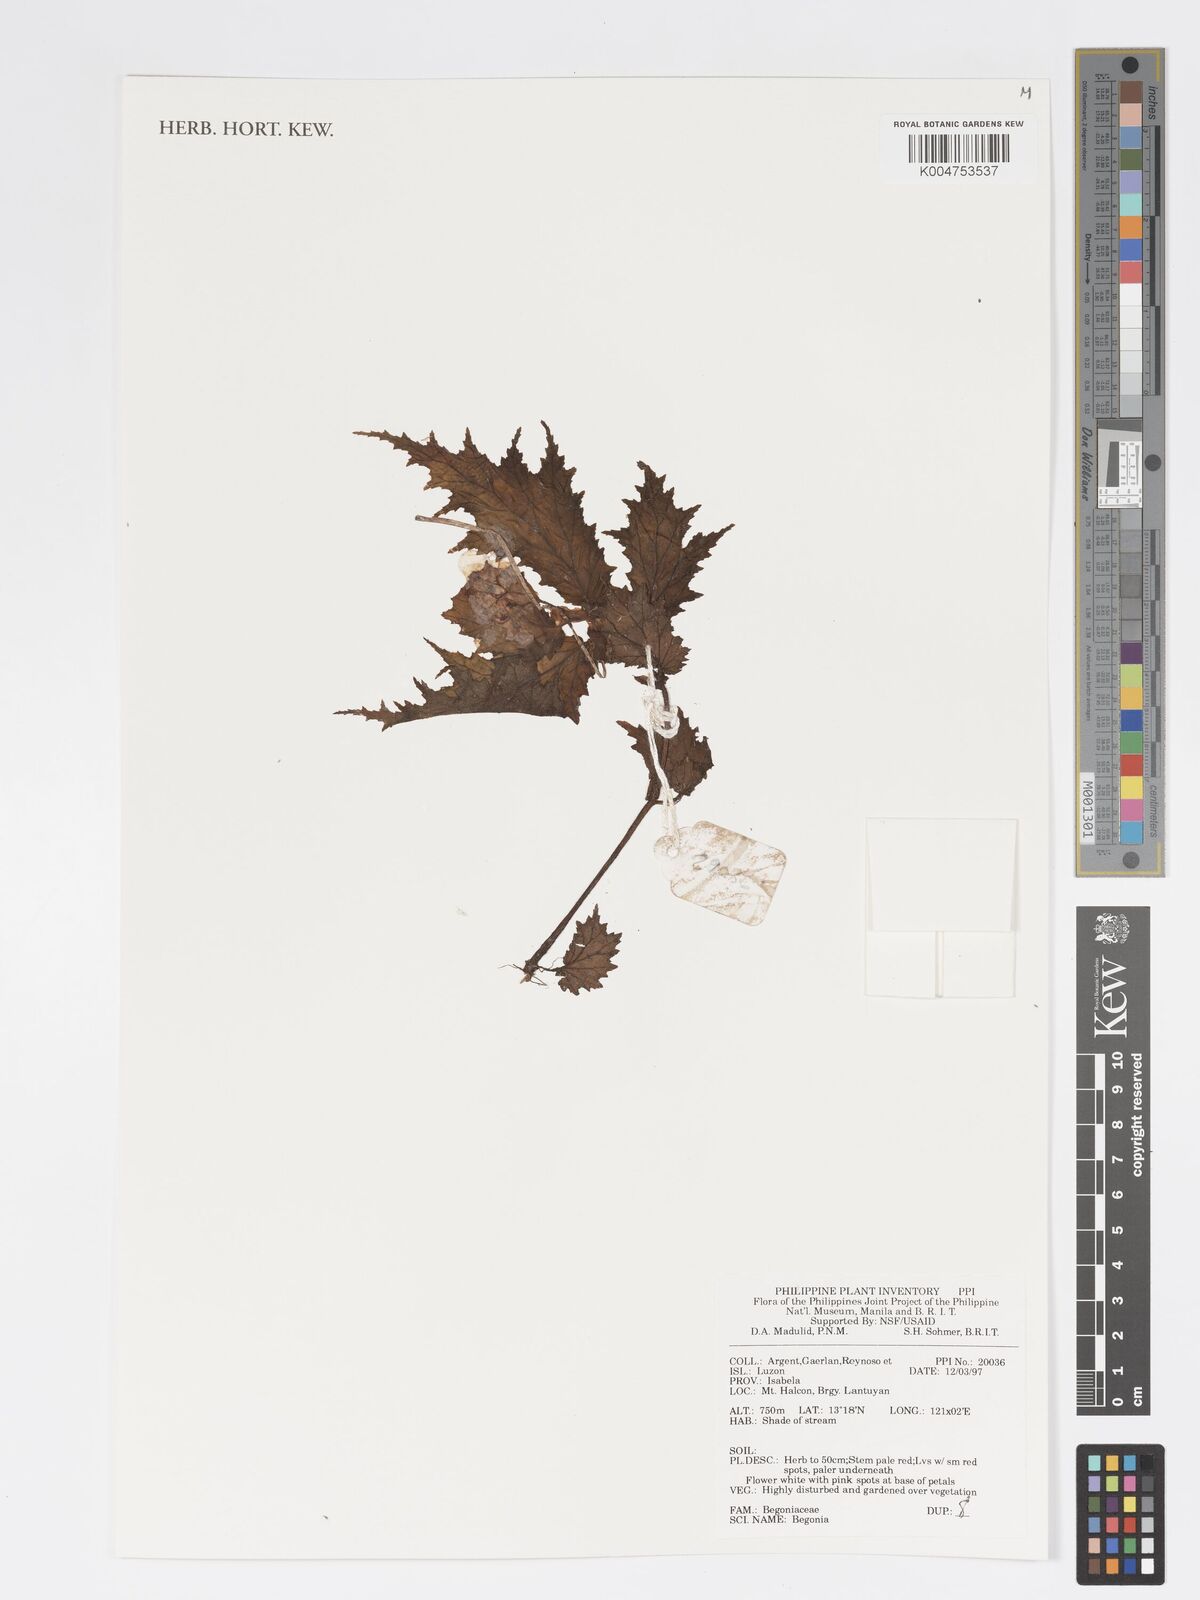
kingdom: Plantae
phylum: Tracheophyta
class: Magnoliopsida
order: Cucurbitales
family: Begoniaceae
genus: Begonia
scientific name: Begonia
